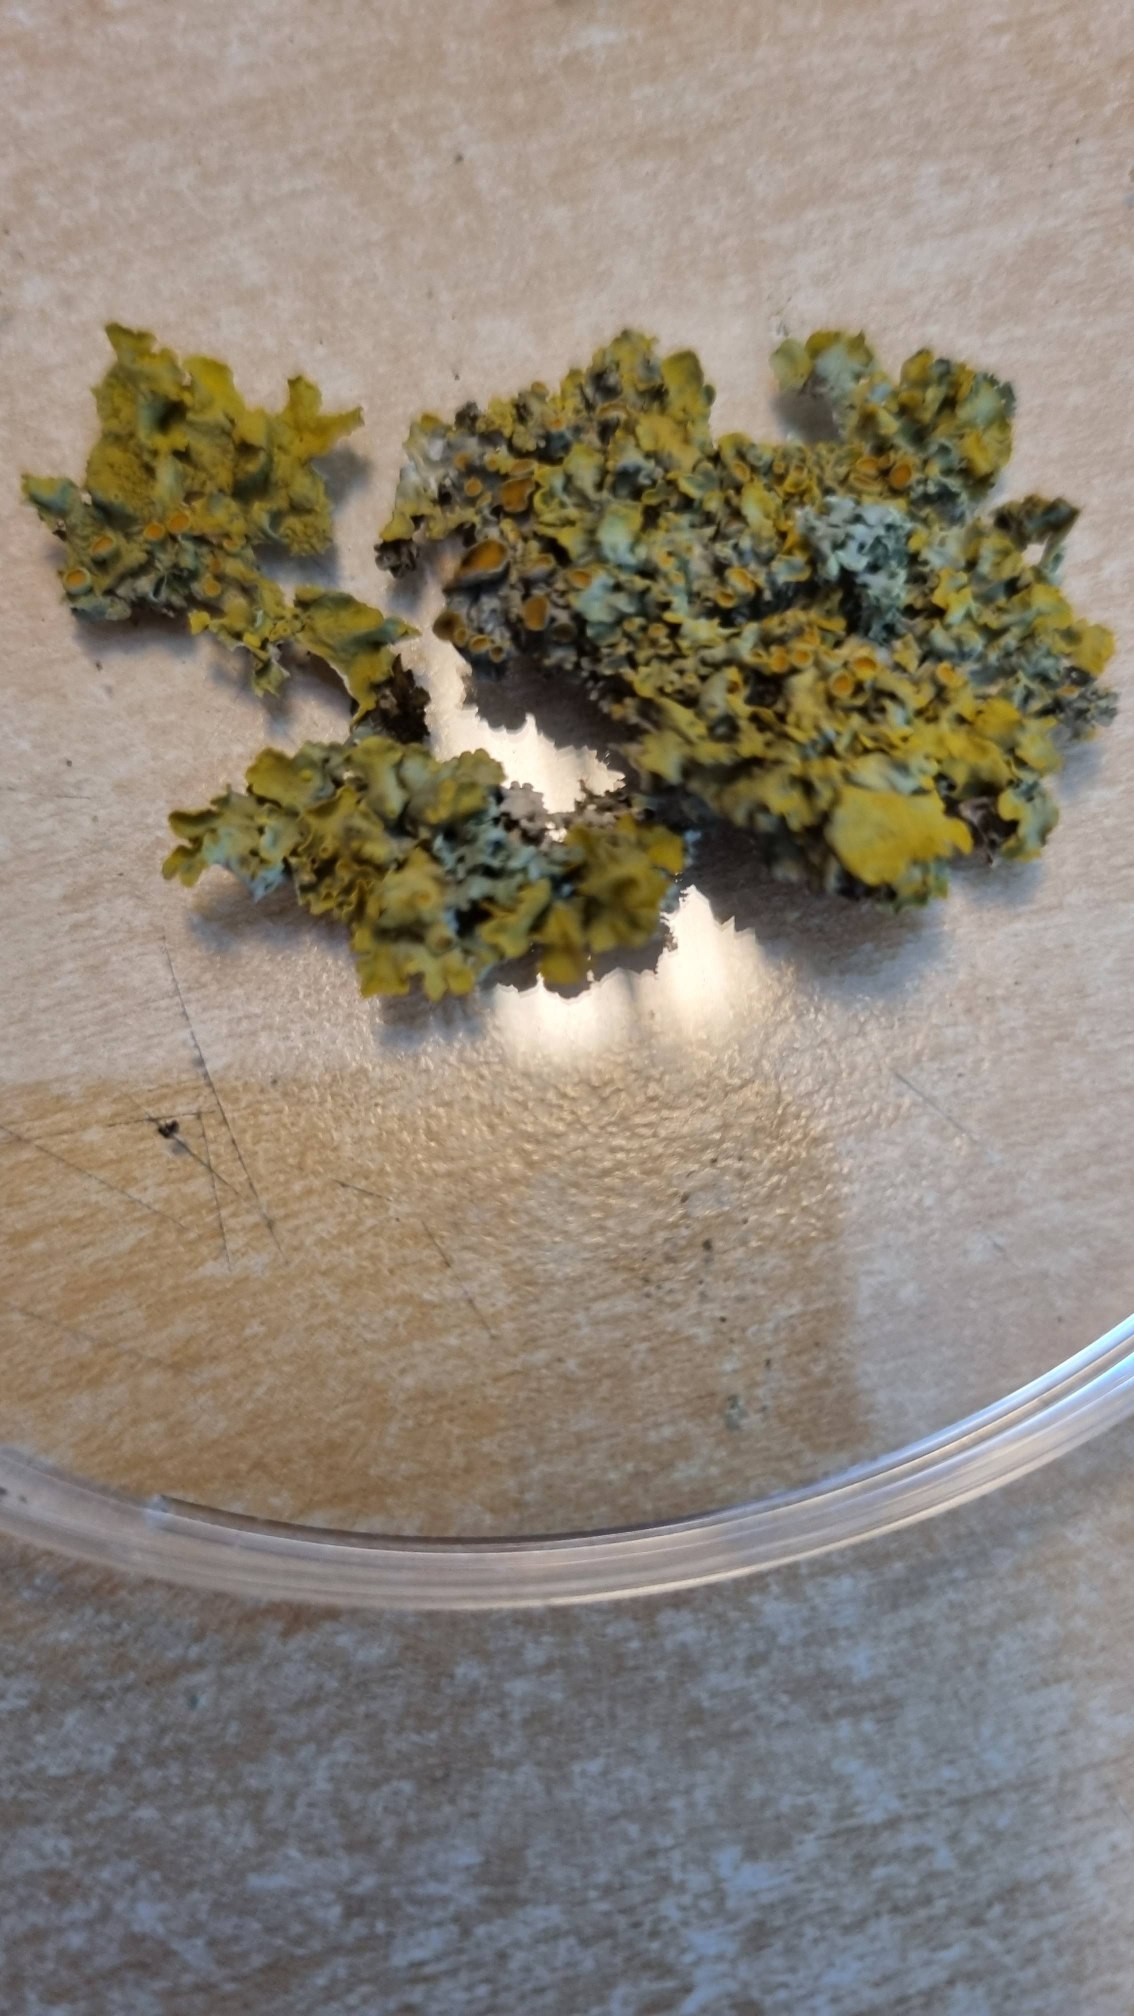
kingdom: Fungi
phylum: Ascomycota
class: Lecanoromycetes
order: Teloschistales
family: Teloschistaceae
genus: Xanthoria
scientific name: Xanthoria parietina
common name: Almindelig væggelav
